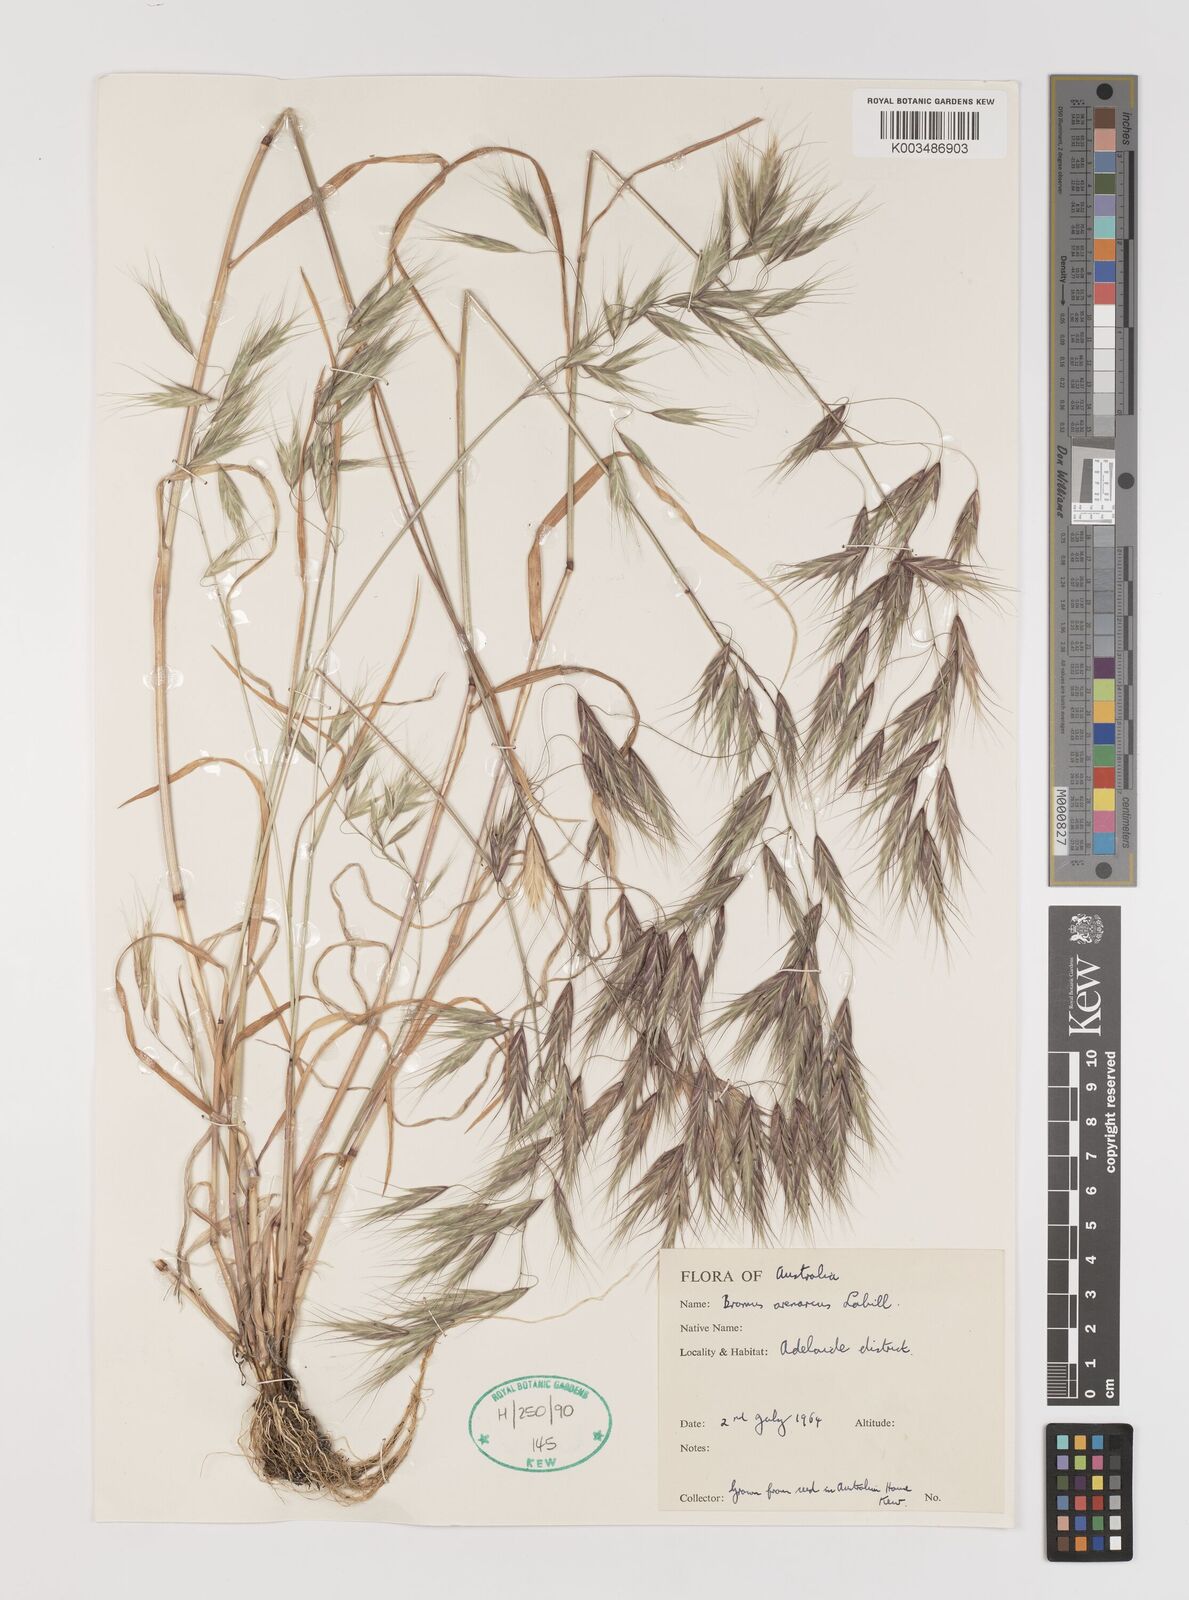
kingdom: Plantae
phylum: Tracheophyta
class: Liliopsida
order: Poales
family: Poaceae
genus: Bromus
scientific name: Bromus arenarius
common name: Australian brome
